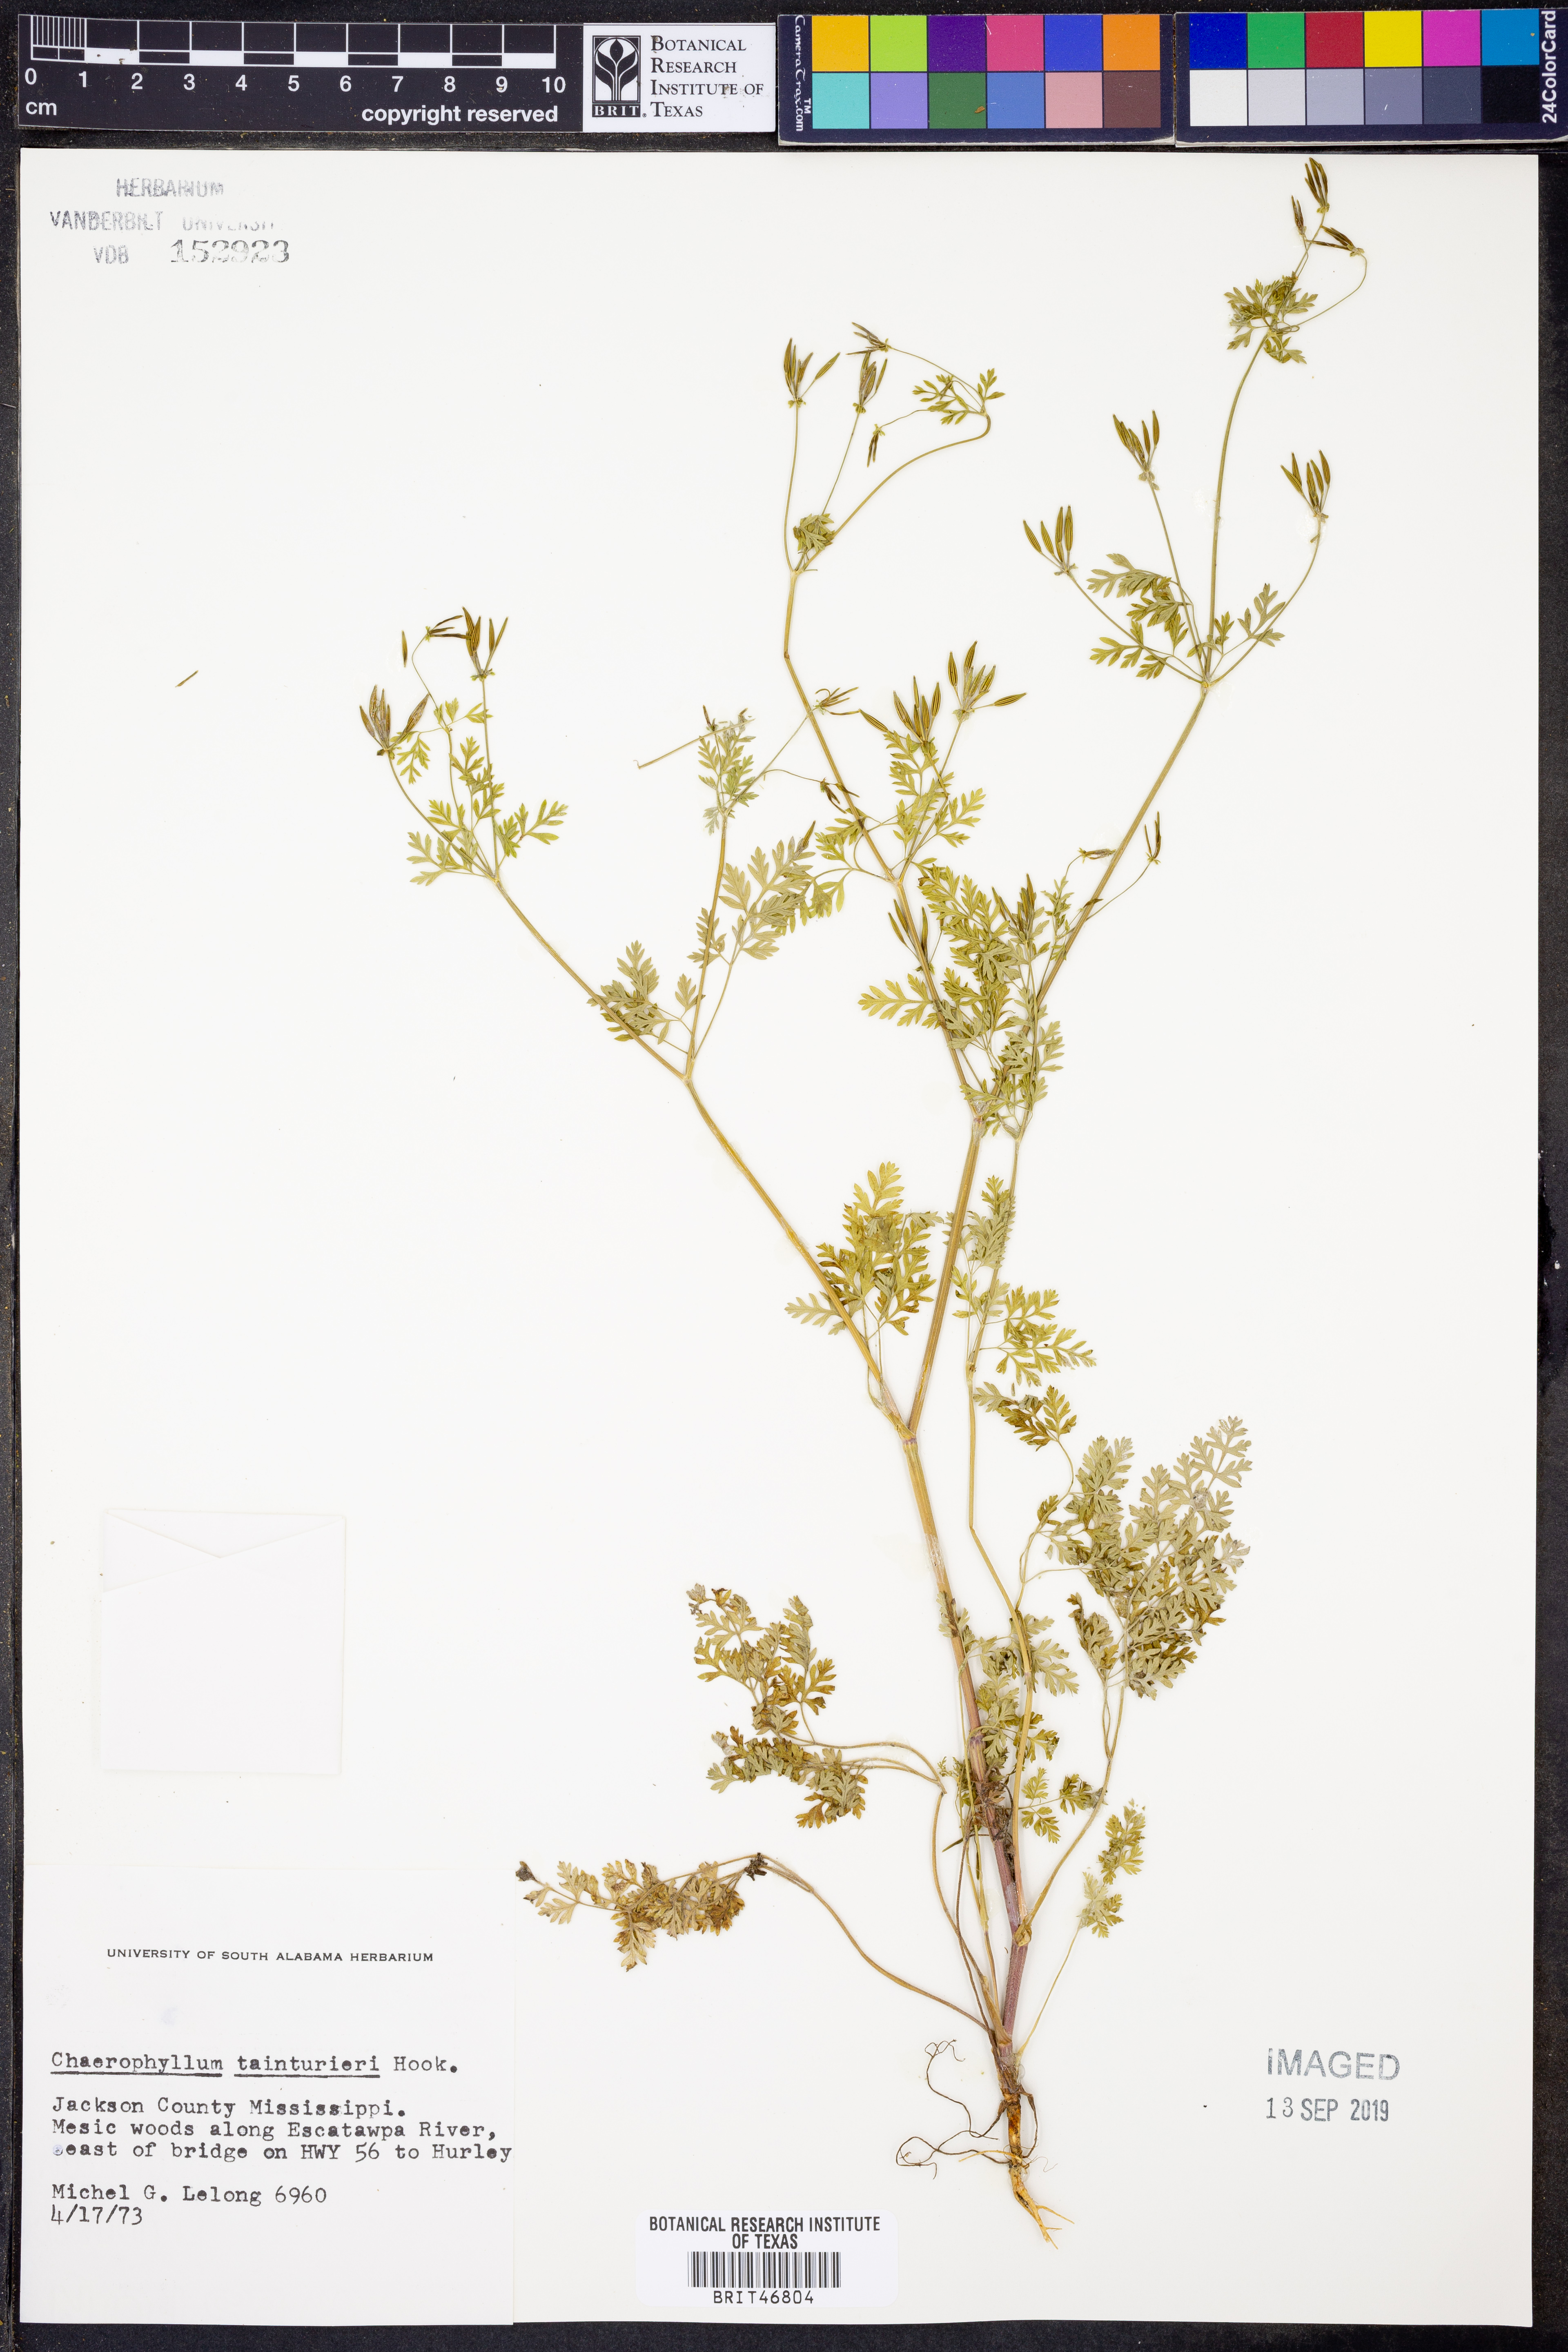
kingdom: Plantae
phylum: Tracheophyta
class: Magnoliopsida
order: Apiales
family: Apiaceae
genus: Chaerophyllum
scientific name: Chaerophyllum tainturieri
